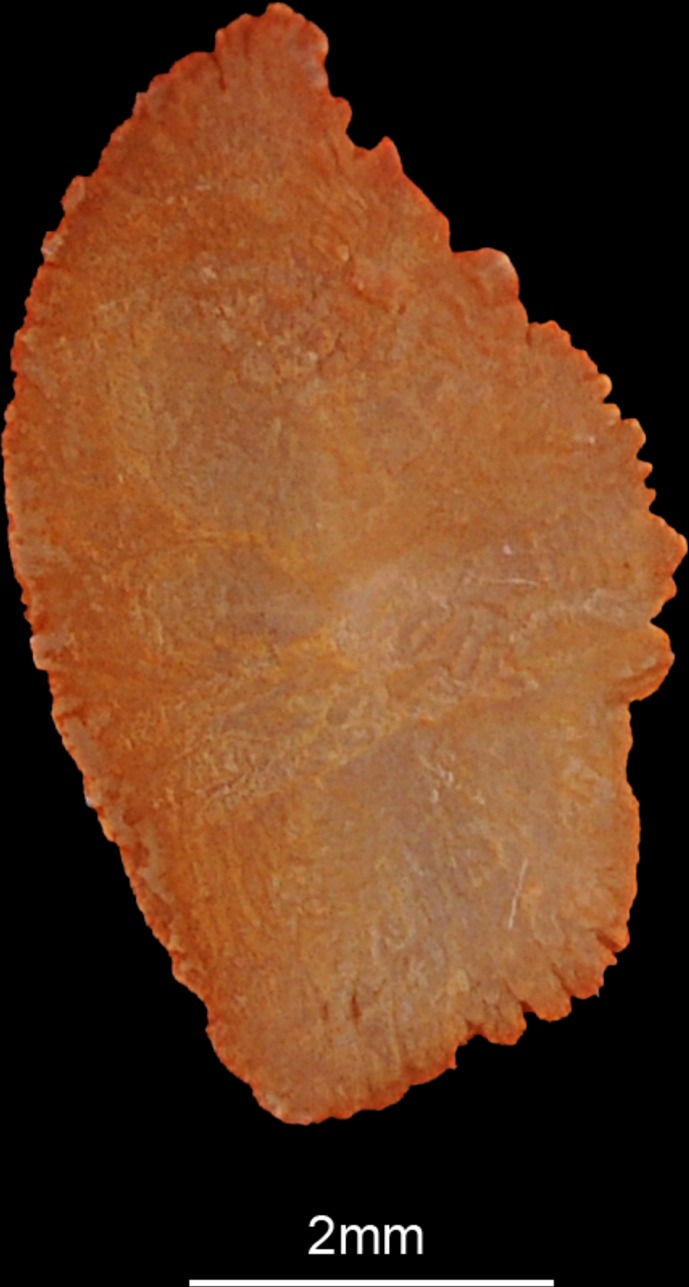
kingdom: Animalia
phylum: Chordata
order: Perciformes
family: Sparidae
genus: Rhabdosargus
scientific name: Rhabdosargus sarba
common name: Goldlined seabream
